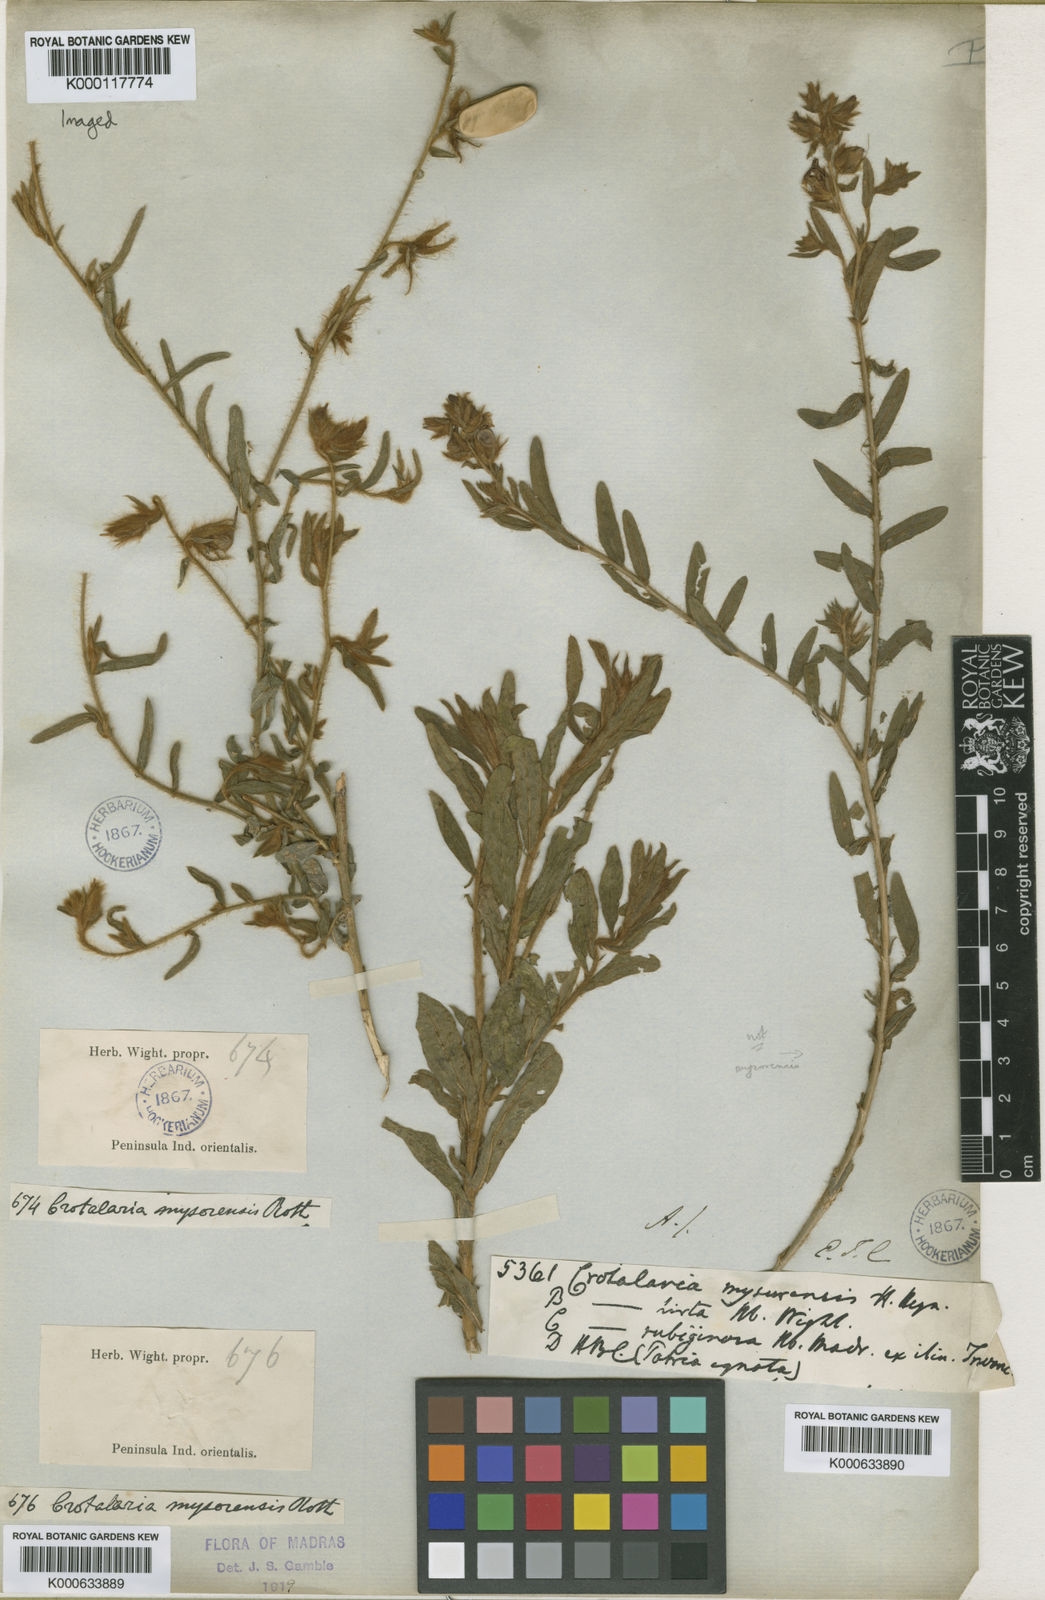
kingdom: Plantae
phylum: Tracheophyta
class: Magnoliopsida
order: Fabales
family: Fabaceae
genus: Crotalaria
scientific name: Crotalaria mysorensis
